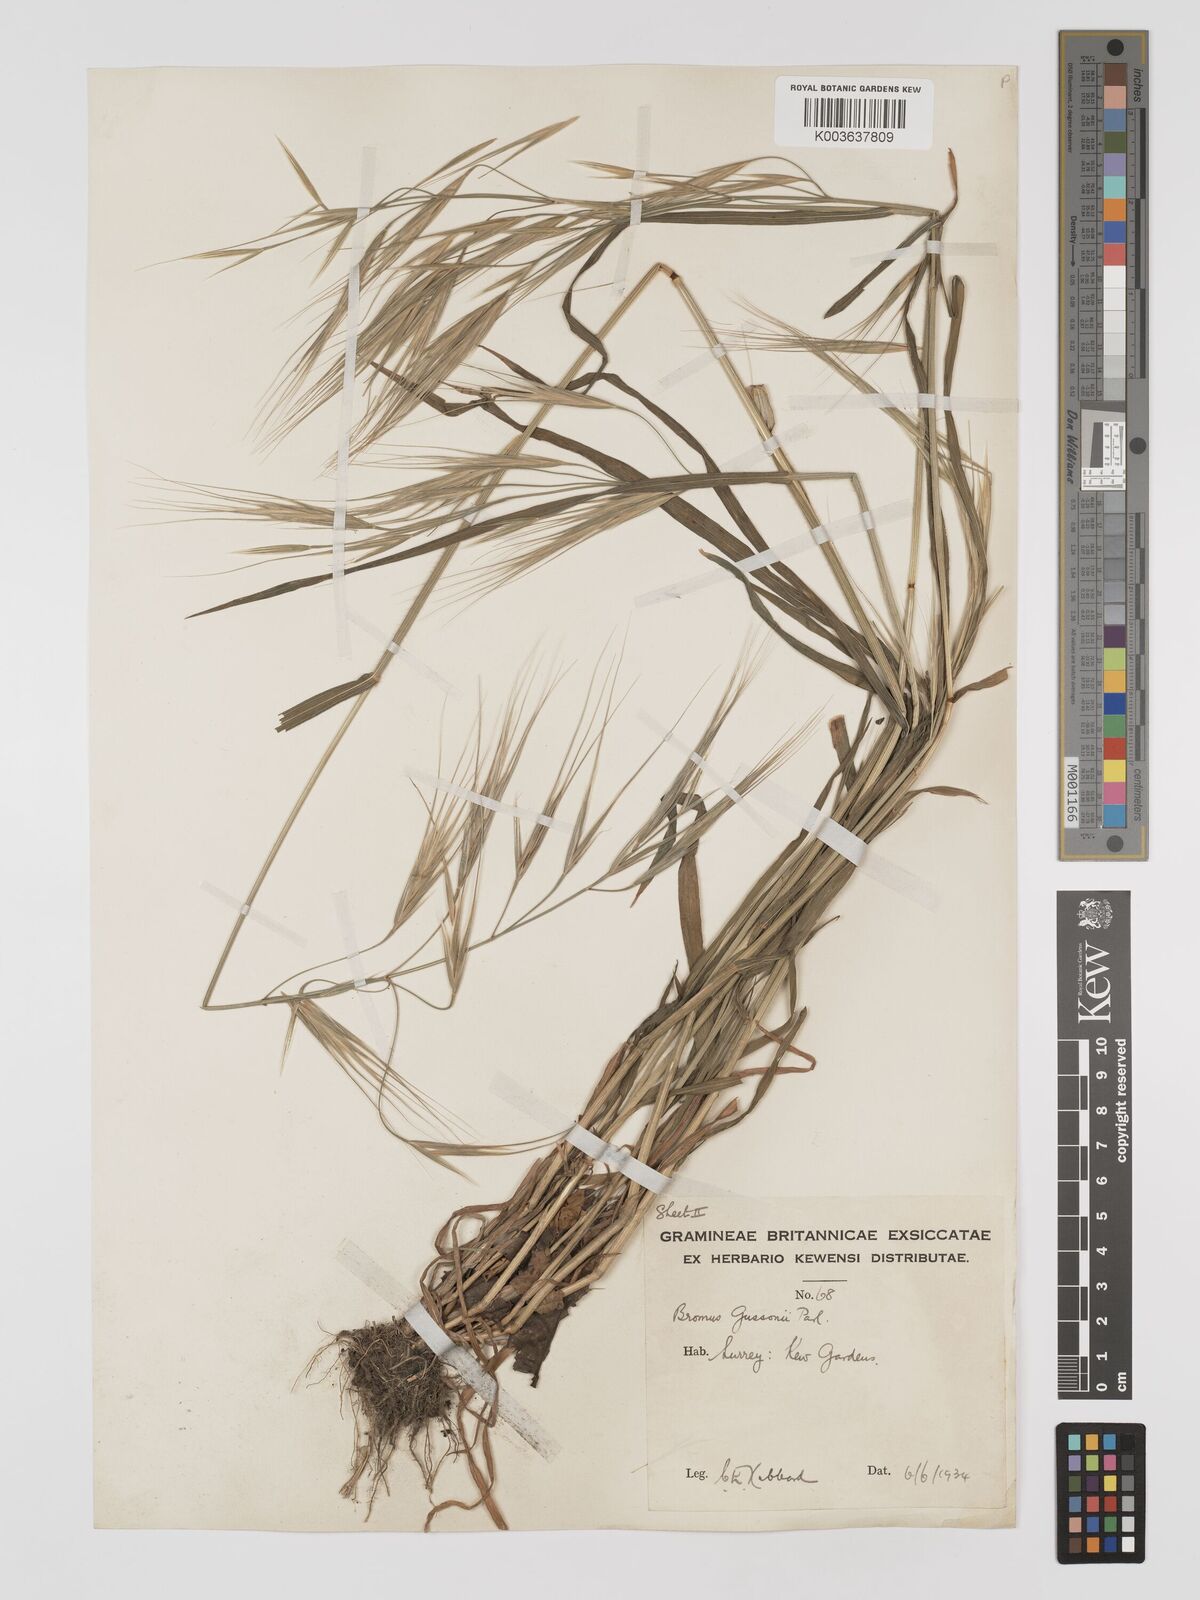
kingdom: Plantae
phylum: Tracheophyta
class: Liliopsida
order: Poales
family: Poaceae
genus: Bromus
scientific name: Bromus
